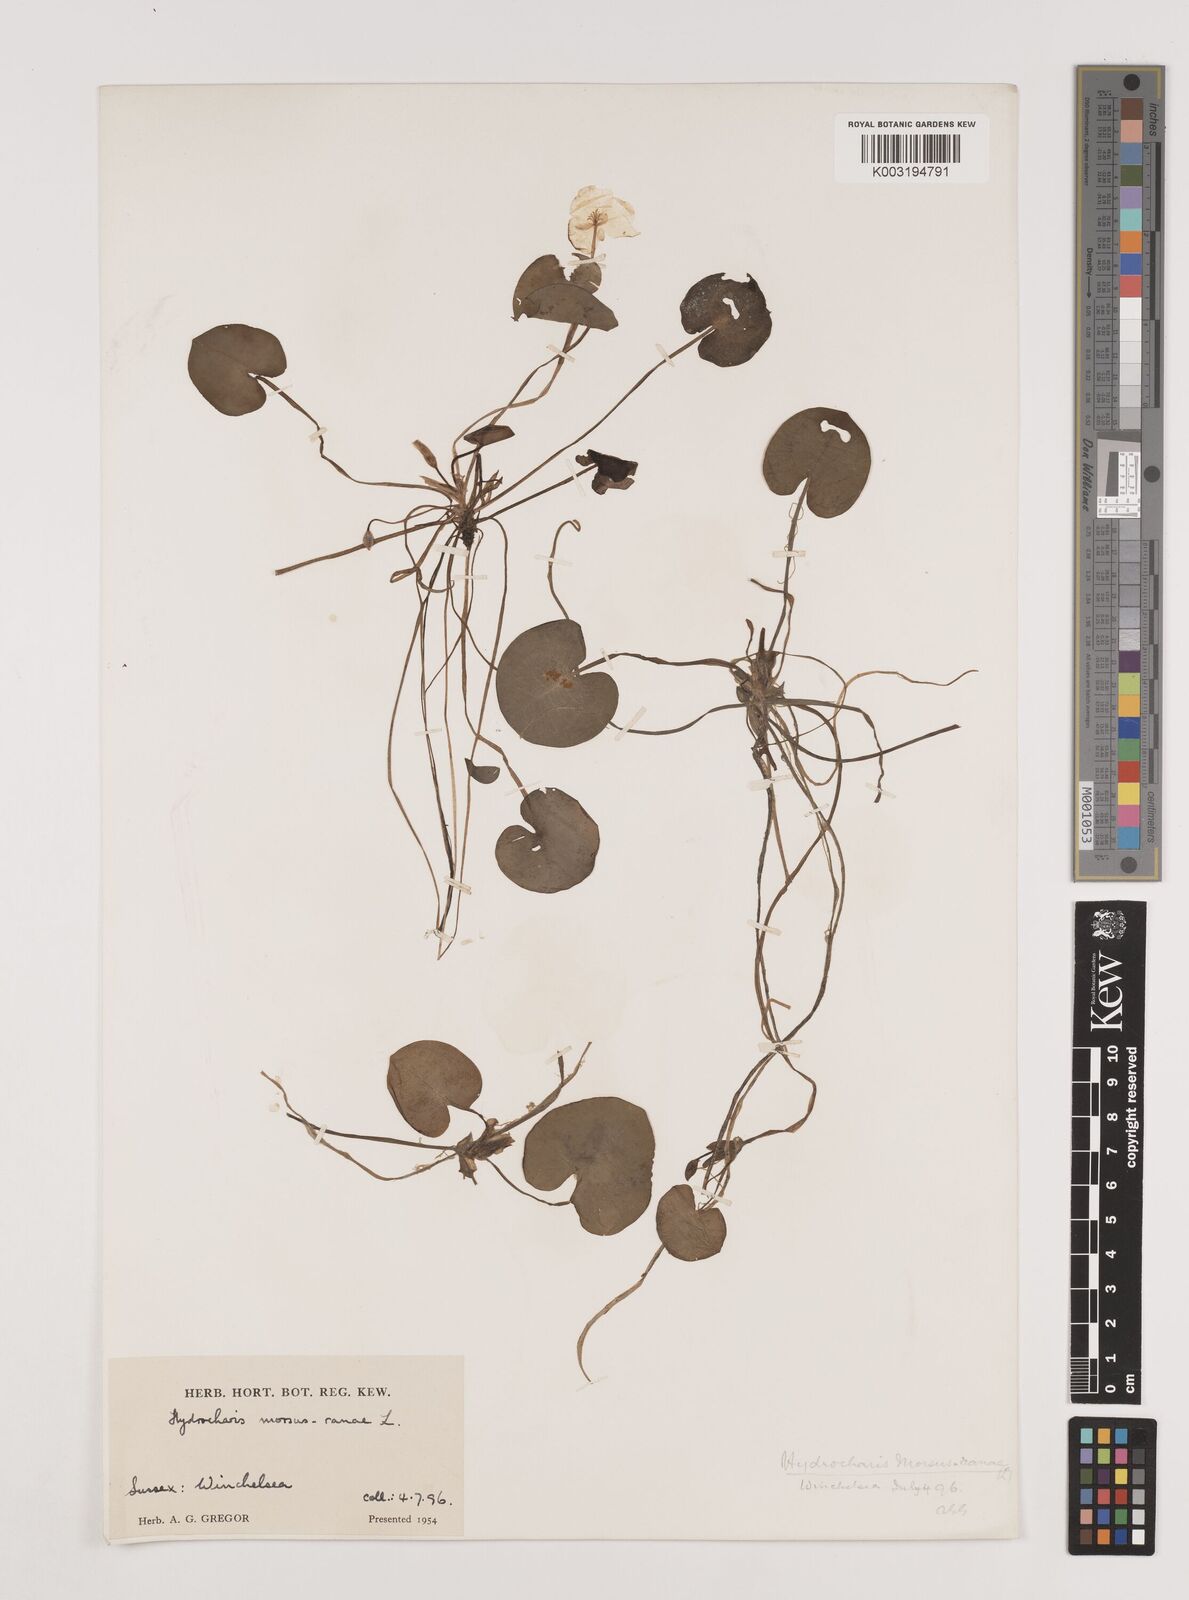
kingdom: Plantae
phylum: Tracheophyta
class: Liliopsida
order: Alismatales
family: Hydrocharitaceae
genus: Hydrocharis
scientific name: Hydrocharis morsus-ranae
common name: Frogbit
